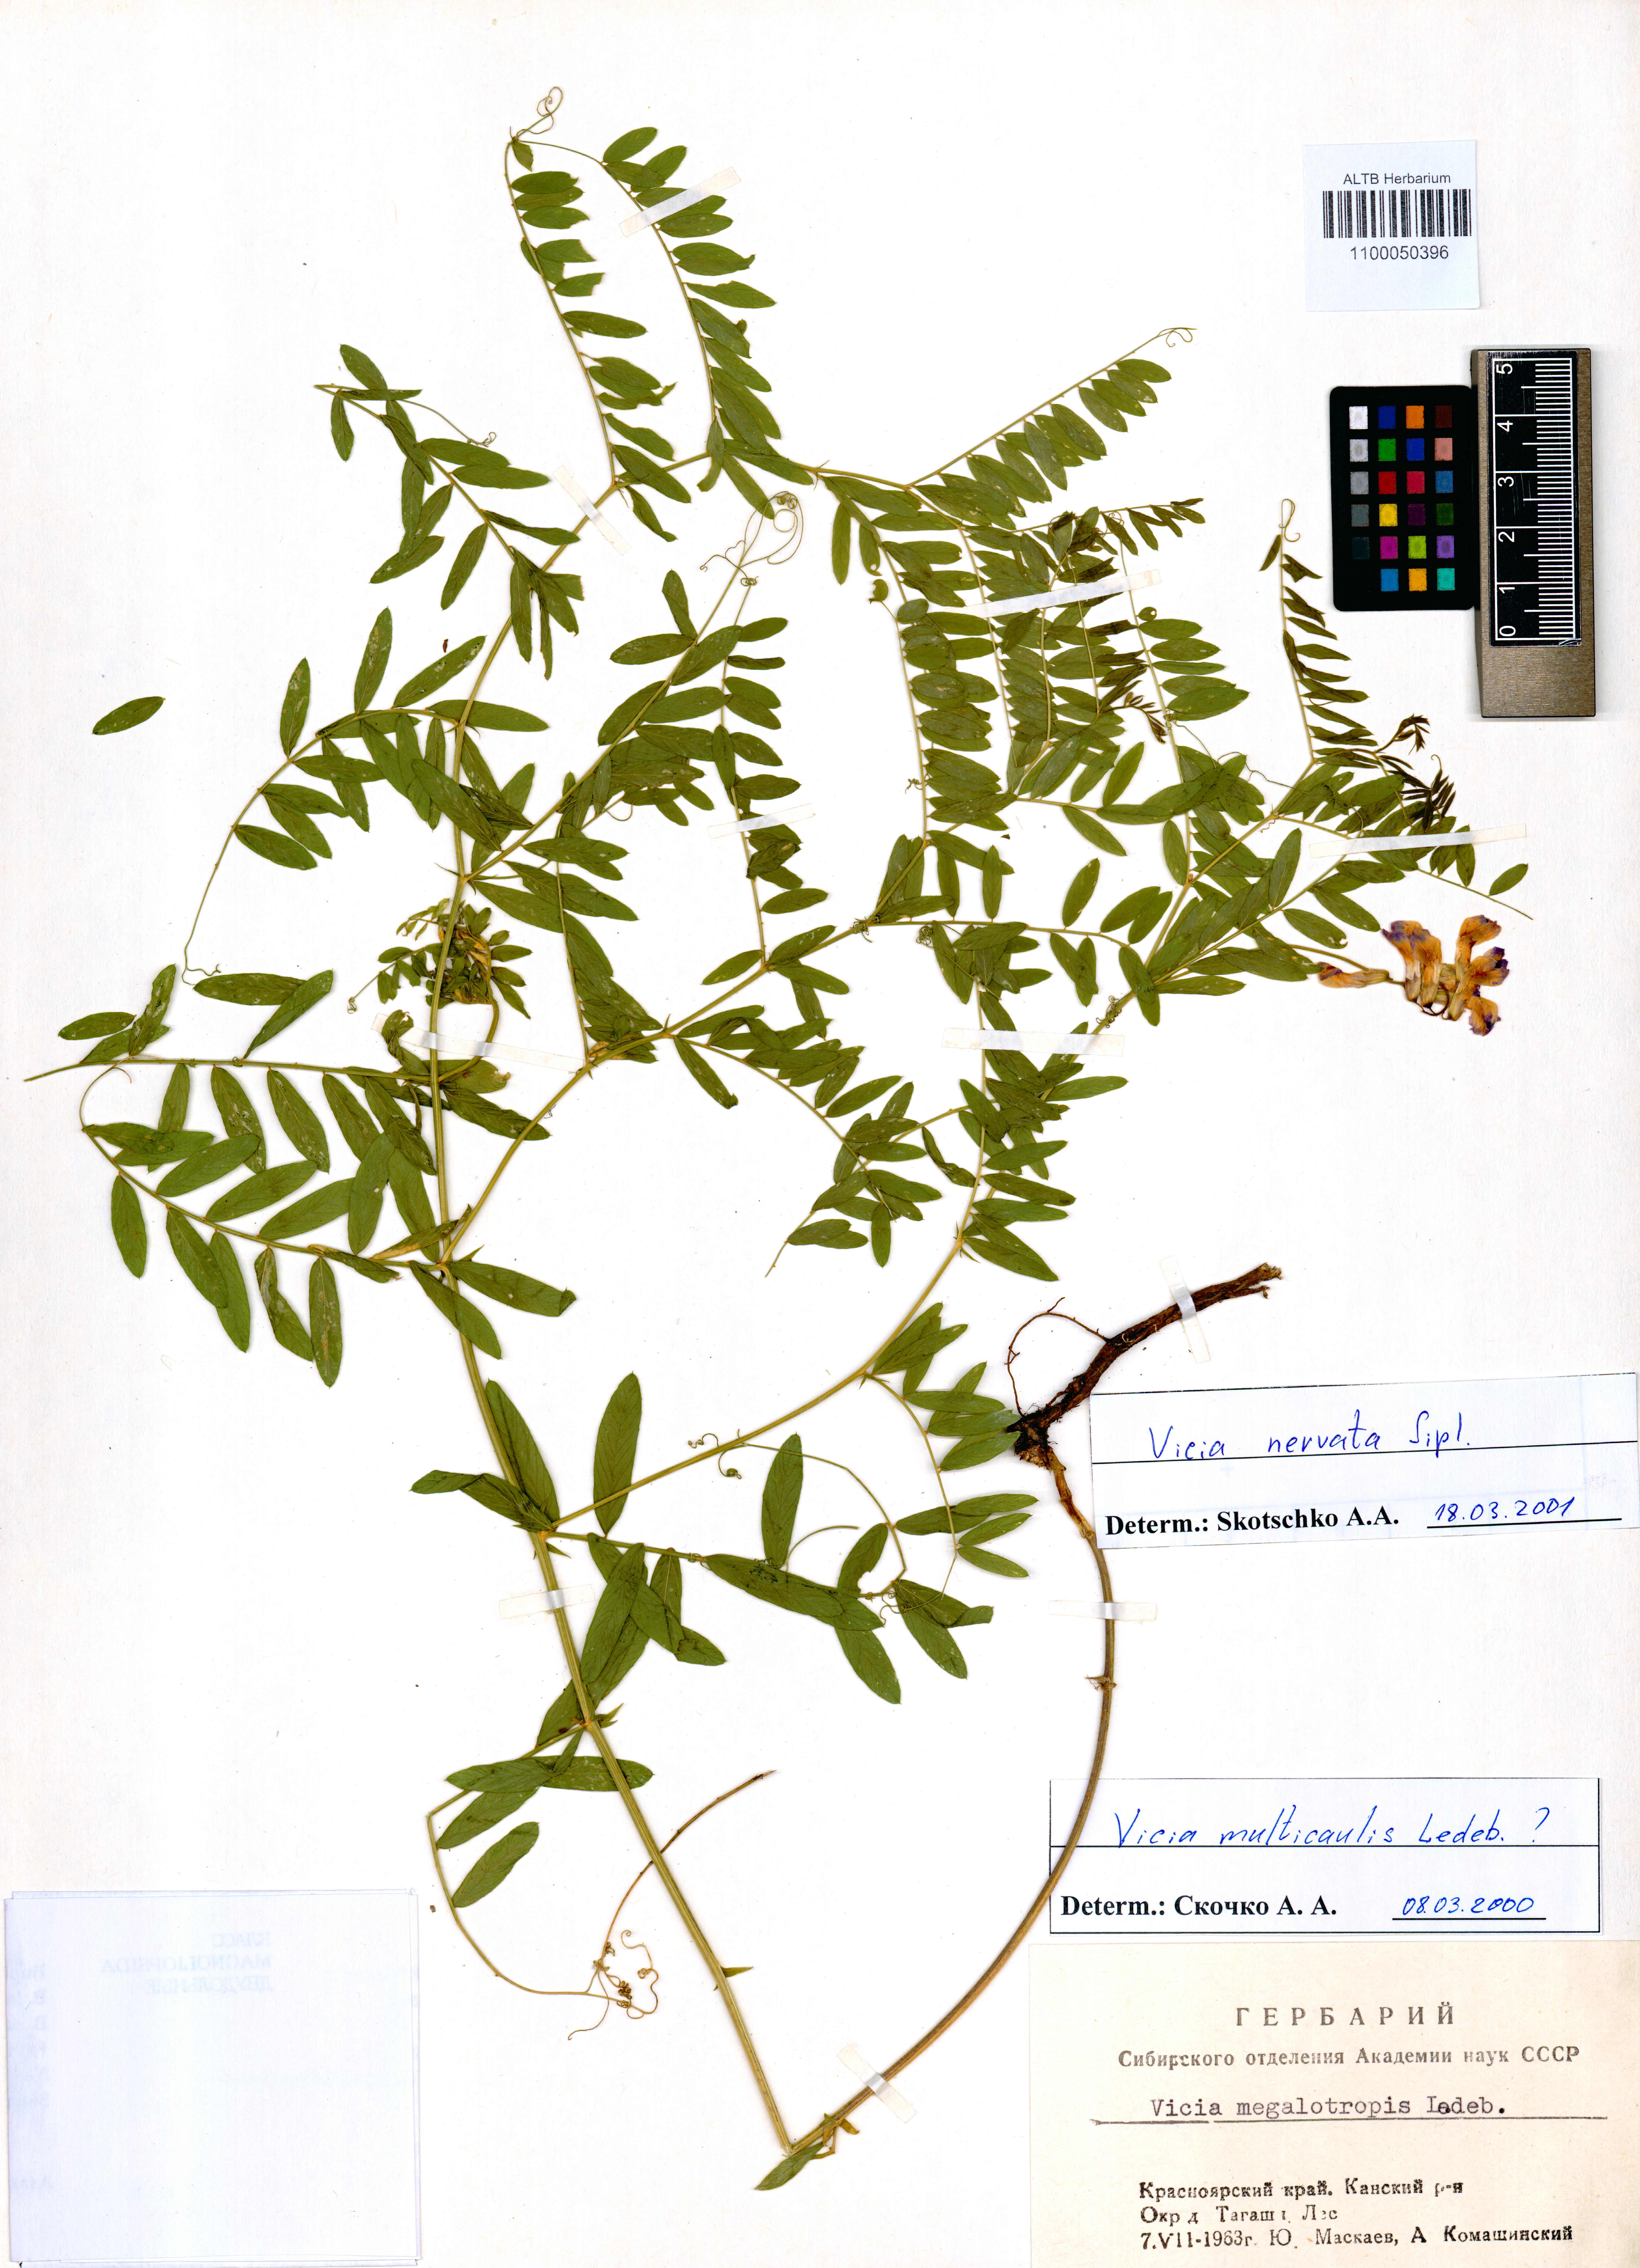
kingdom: Plantae
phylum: Tracheophyta
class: Magnoliopsida
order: Fabales
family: Fabaceae
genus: Vicia
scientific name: Vicia multicaulis
